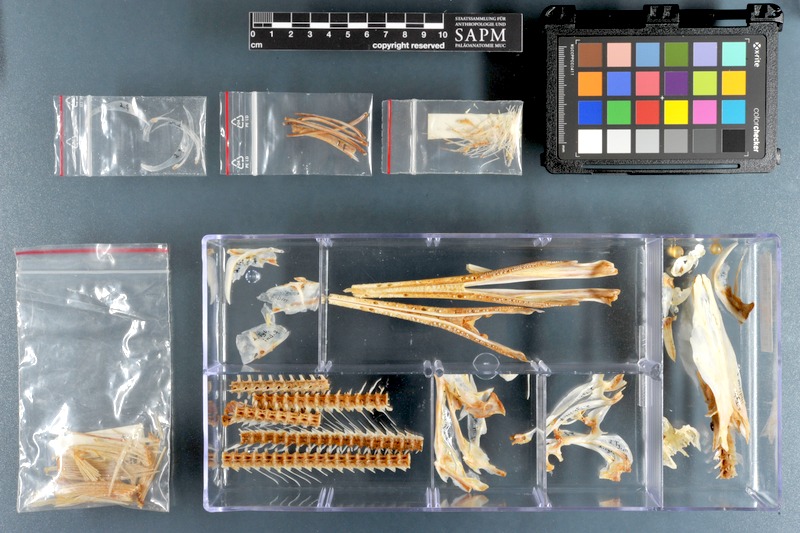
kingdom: Animalia
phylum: Chordata
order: Beloniformes
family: Belonidae
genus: Tylosurus
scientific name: Tylosurus crocodilus
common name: Houndfish
